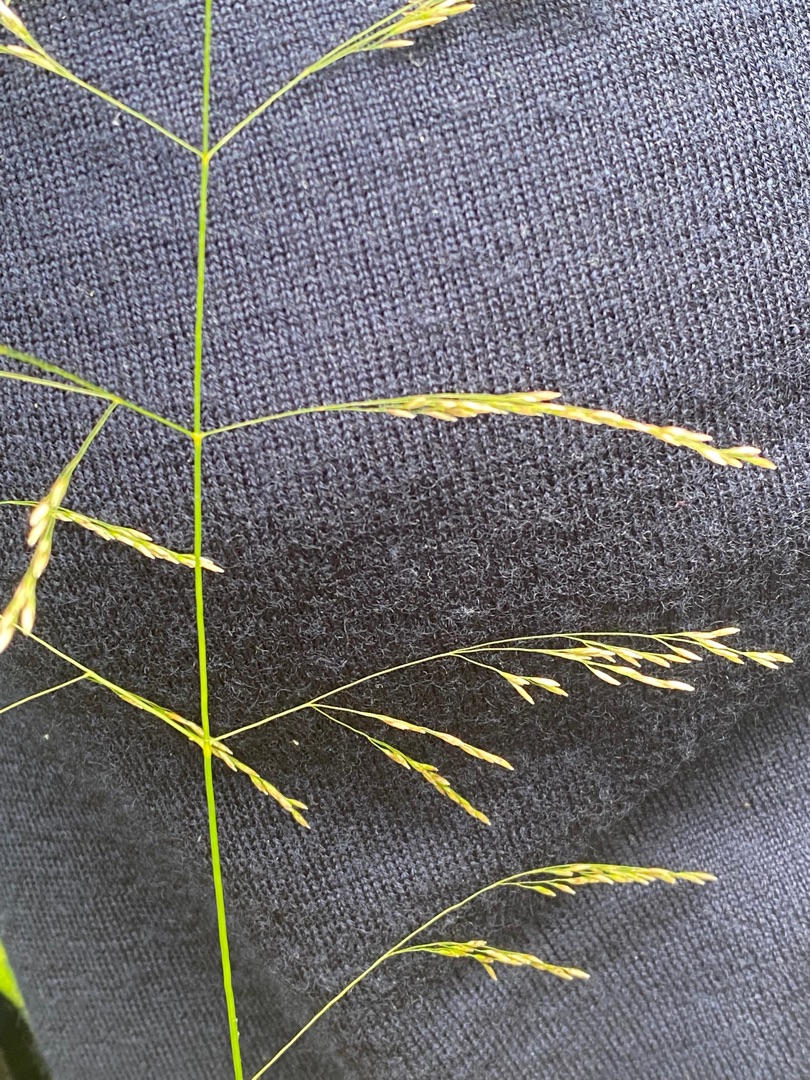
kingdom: Plantae
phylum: Tracheophyta
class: Liliopsida
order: Poales
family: Poaceae
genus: Deschampsia
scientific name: Deschampsia cespitosa
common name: Mose-bunke
